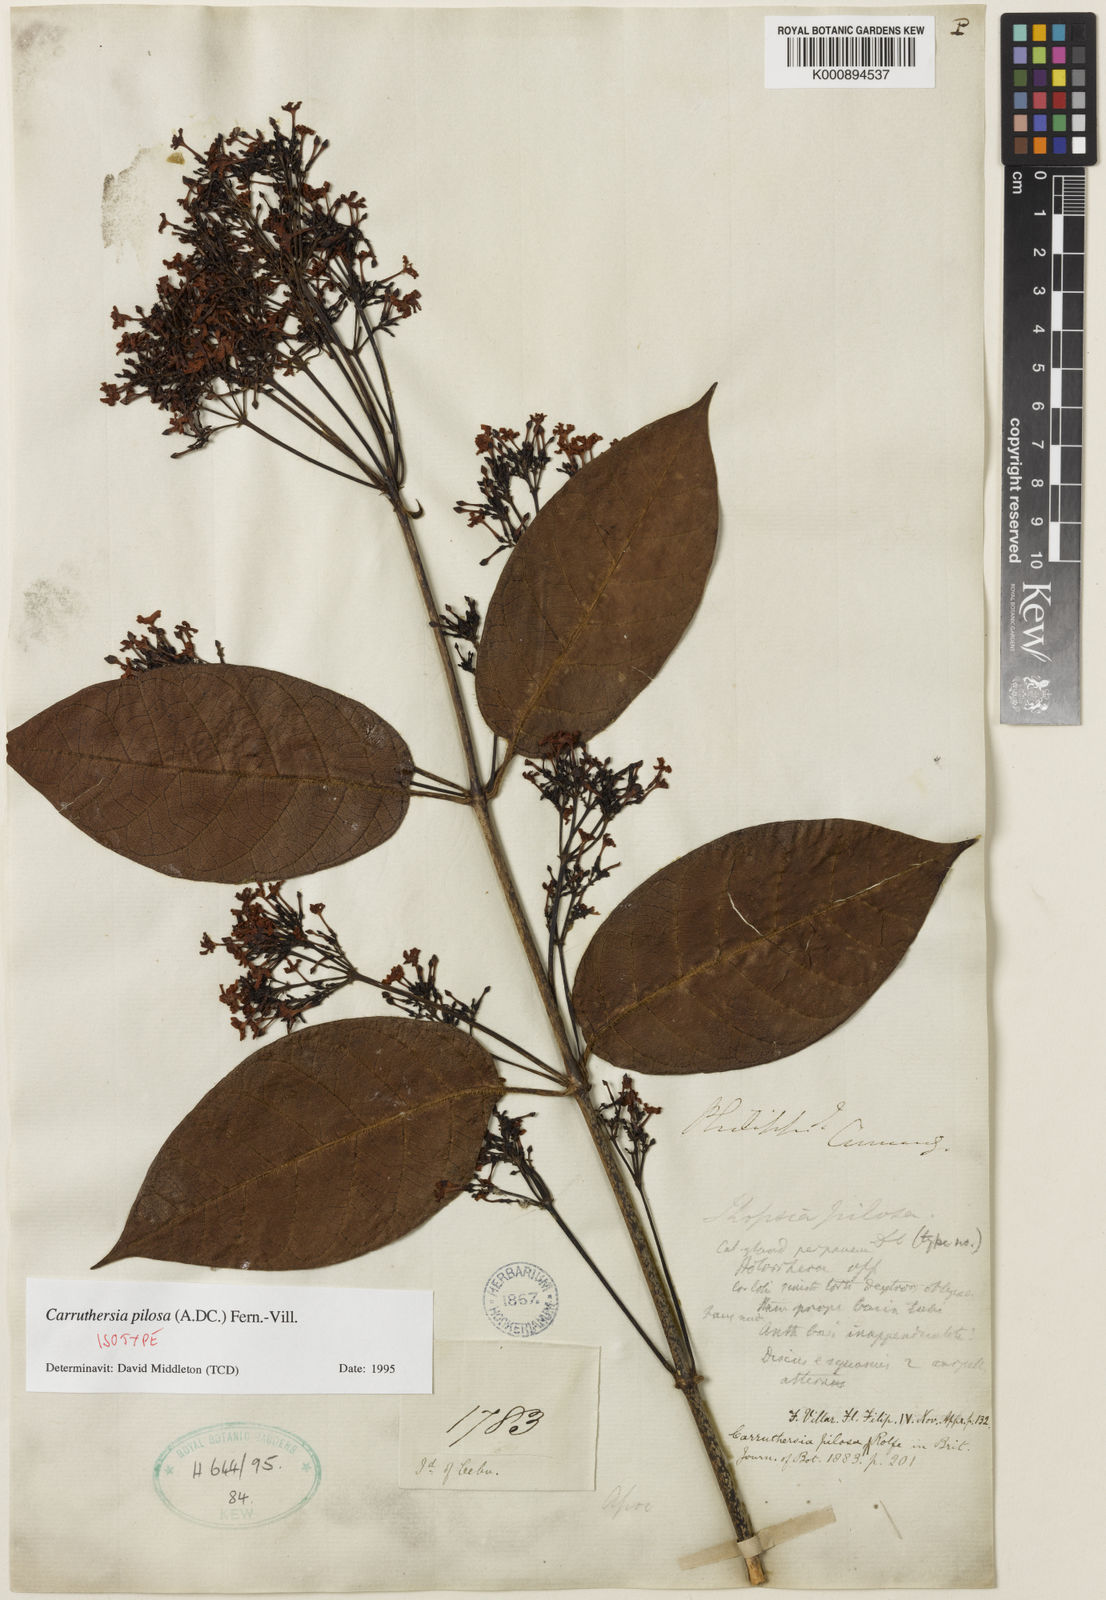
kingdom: Plantae
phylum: Tracheophyta
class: Magnoliopsida
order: Gentianales
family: Apocynaceae
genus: Carruthersia
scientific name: Carruthersia pilosa
